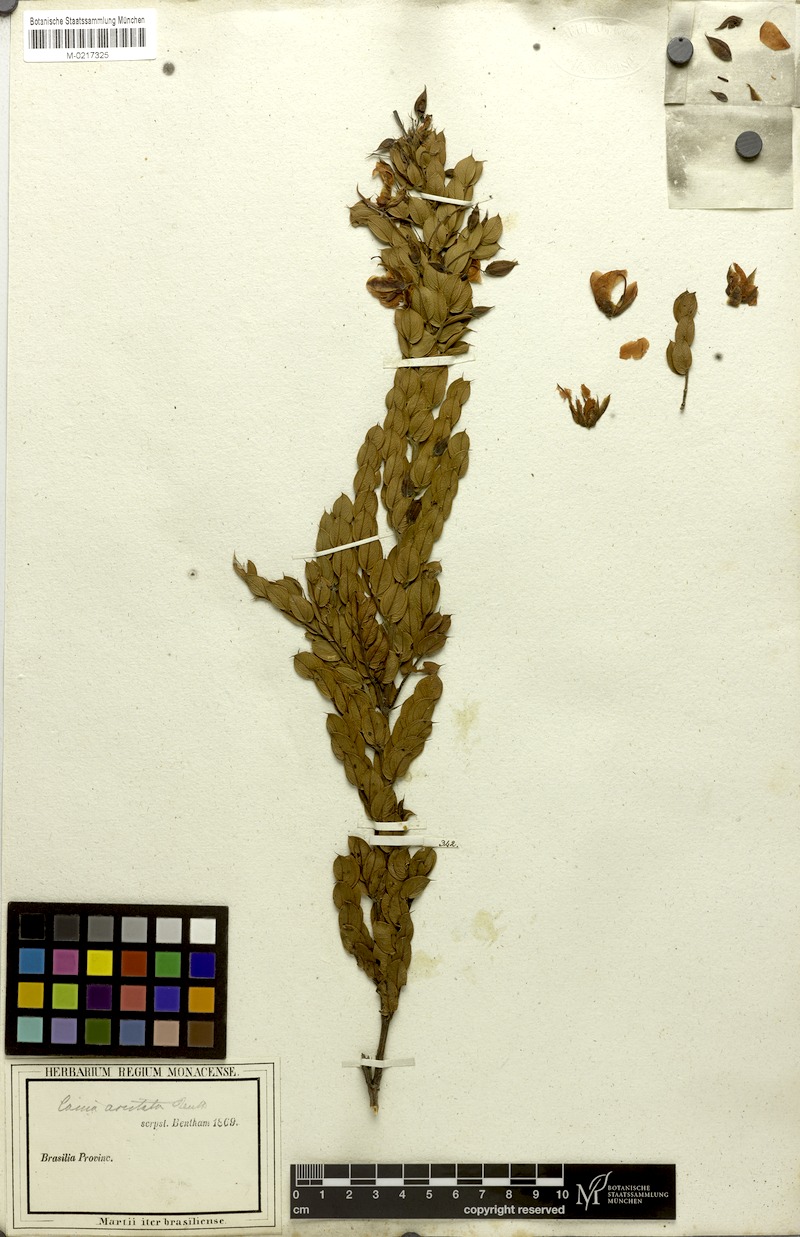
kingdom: Plantae
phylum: Tracheophyta
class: Magnoliopsida
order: Fabales
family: Fabaceae
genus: Chamaecrista
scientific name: Chamaecrista aristata
